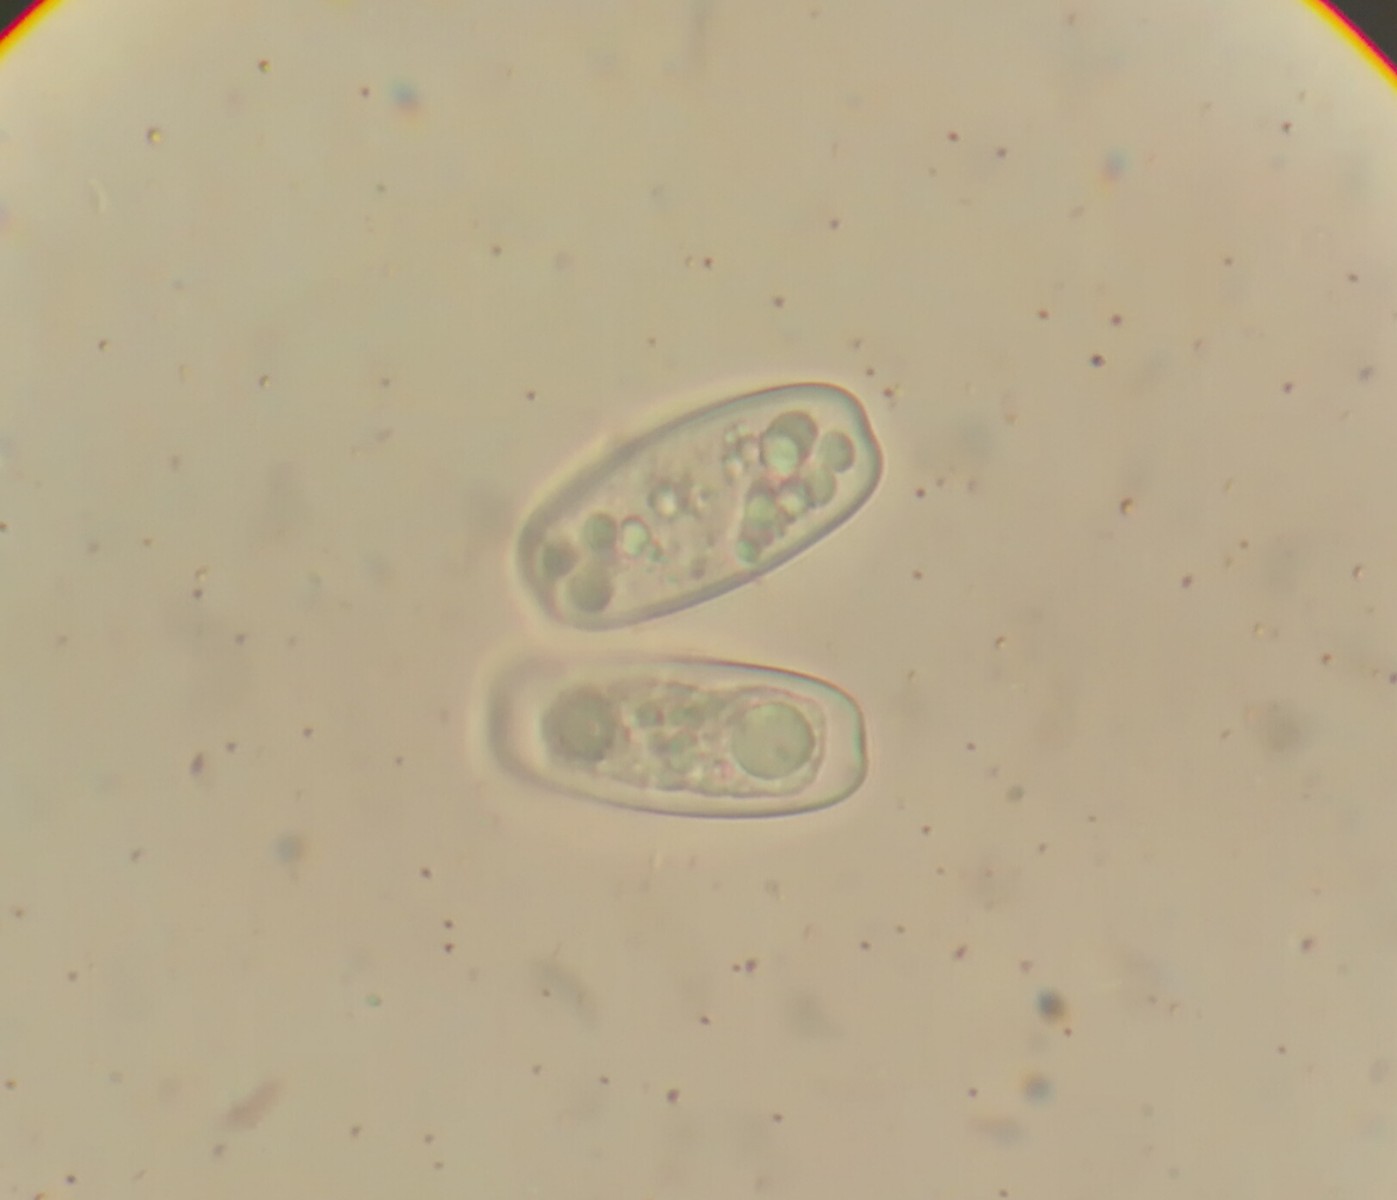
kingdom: Fungi
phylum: Ascomycota
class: Pezizomycetes
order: Pezizales
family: Sarcoscyphaceae
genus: Sarcoscypha
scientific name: Sarcoscypha austriaca
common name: krølhåret pragtbæger
